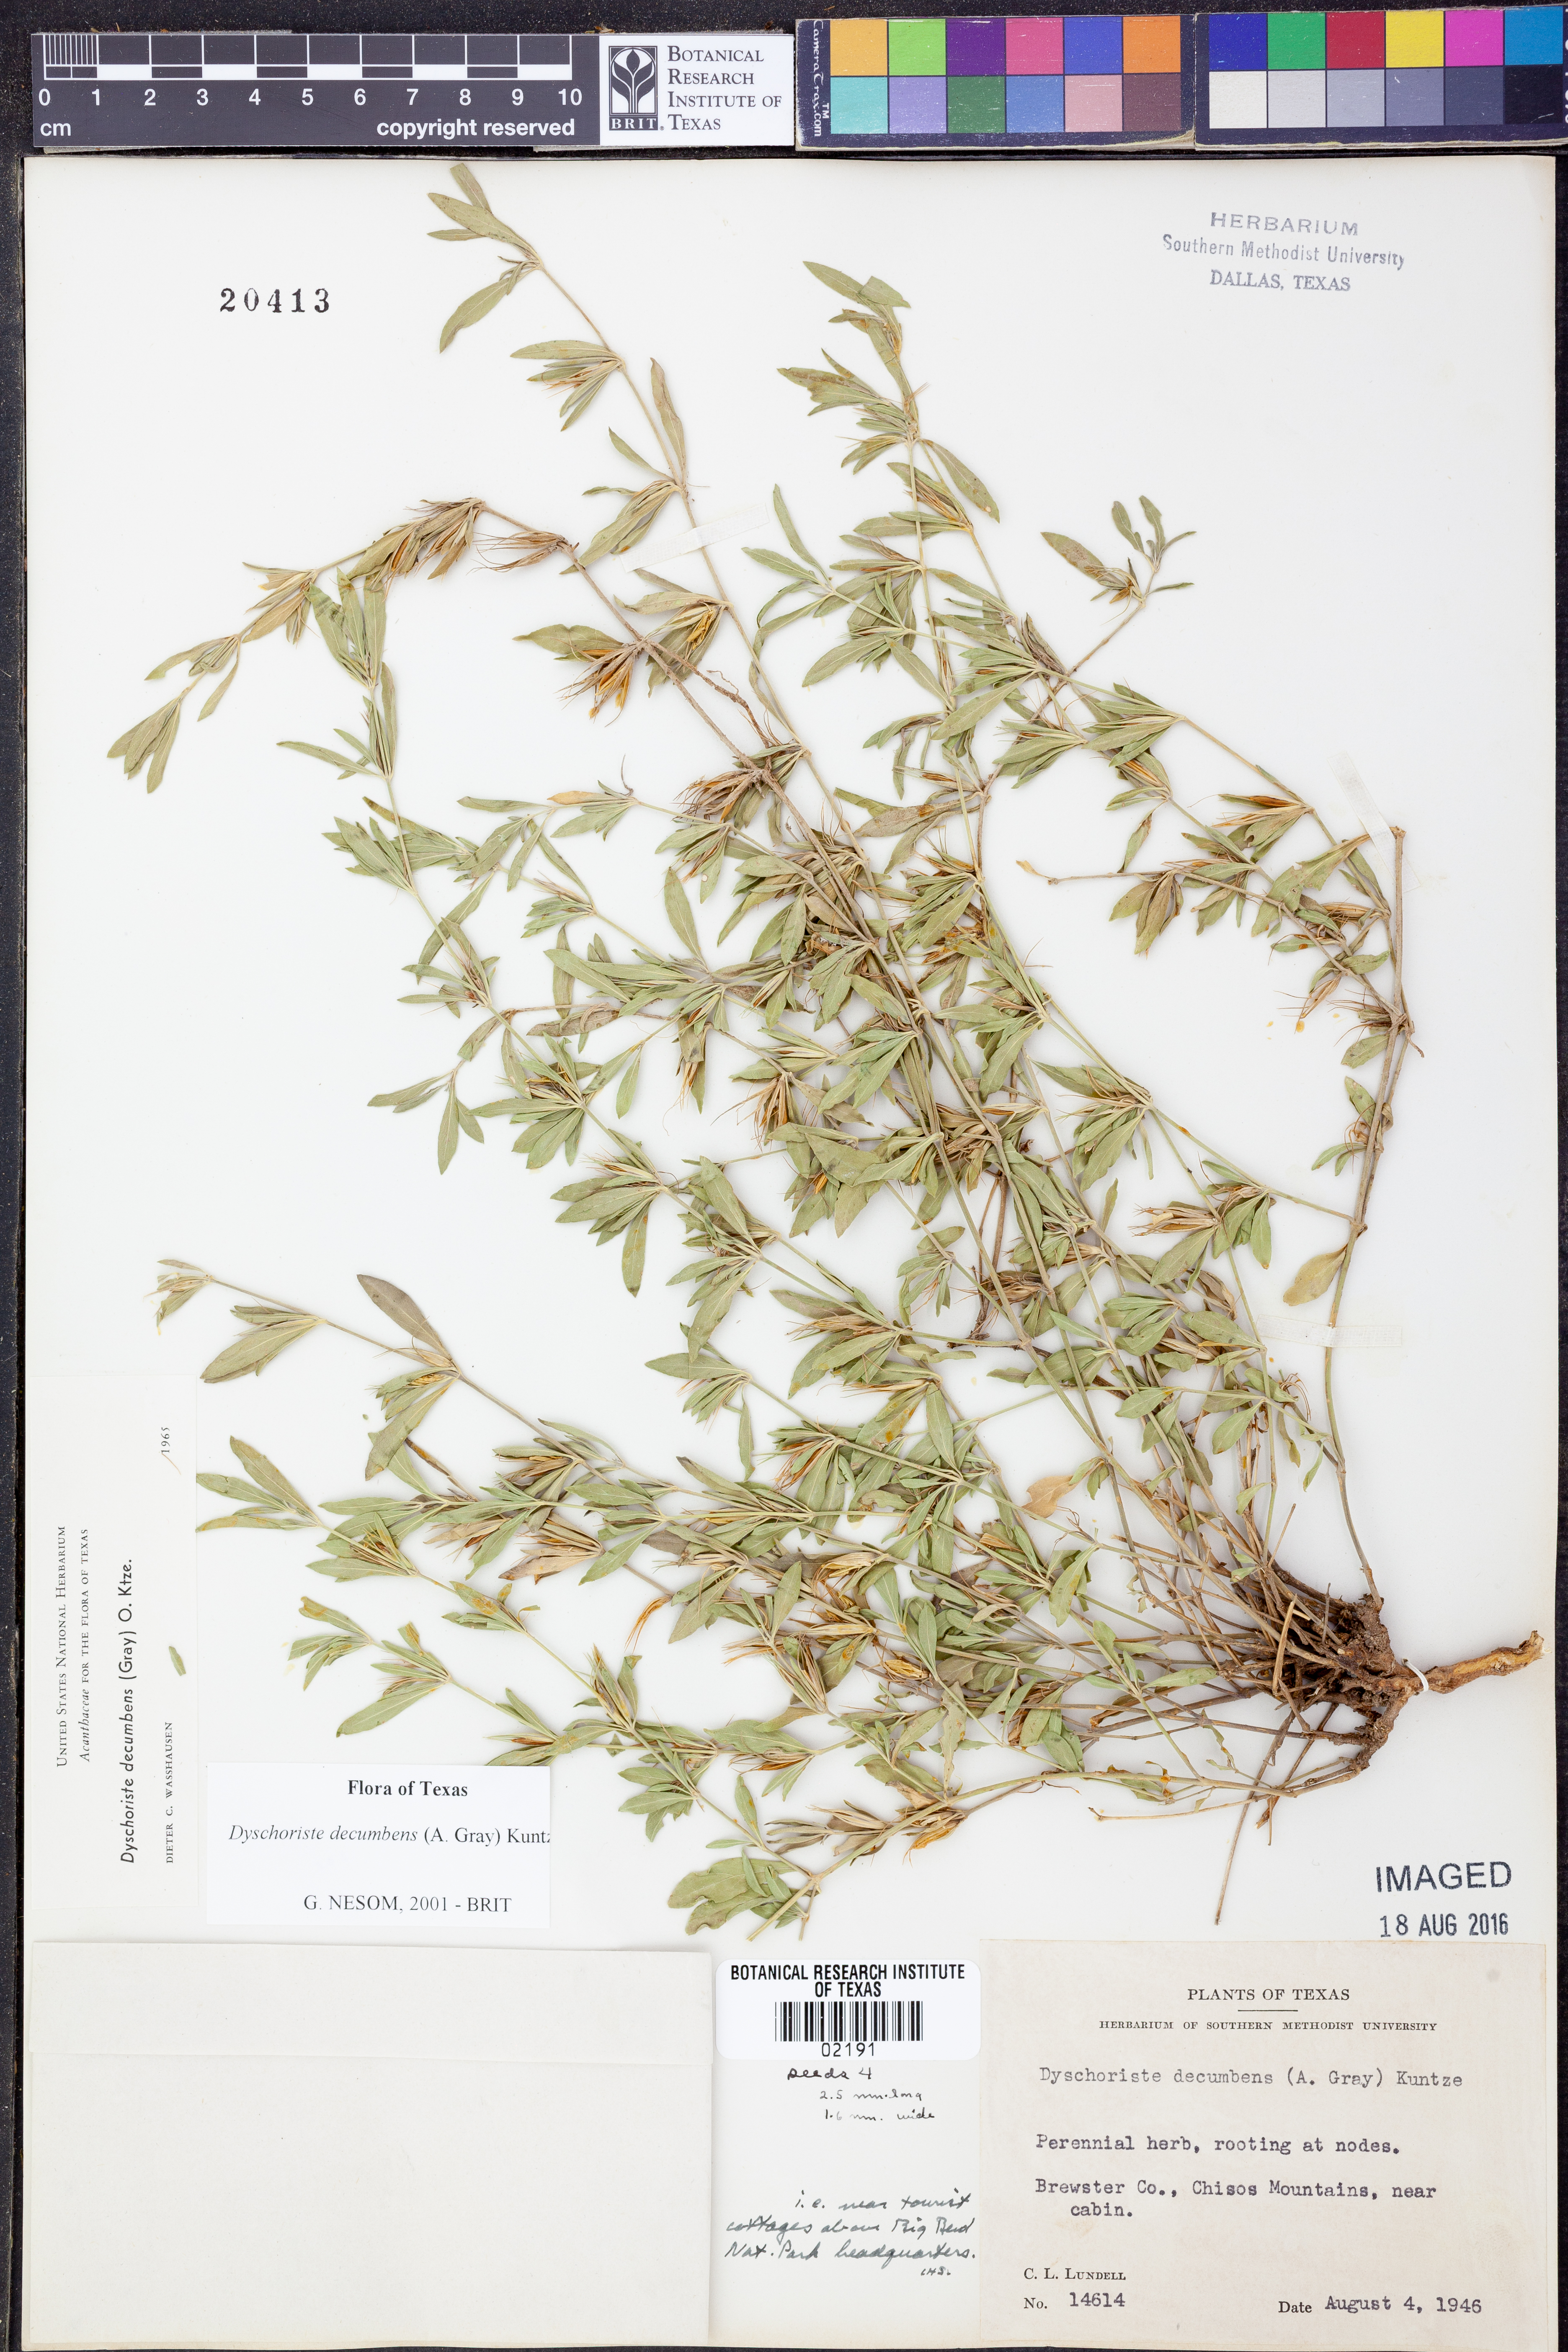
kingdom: Plantae
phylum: Tracheophyta
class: Magnoliopsida
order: Lamiales
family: Acanthaceae
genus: Dyschoriste
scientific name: Dyschoriste decumbens
